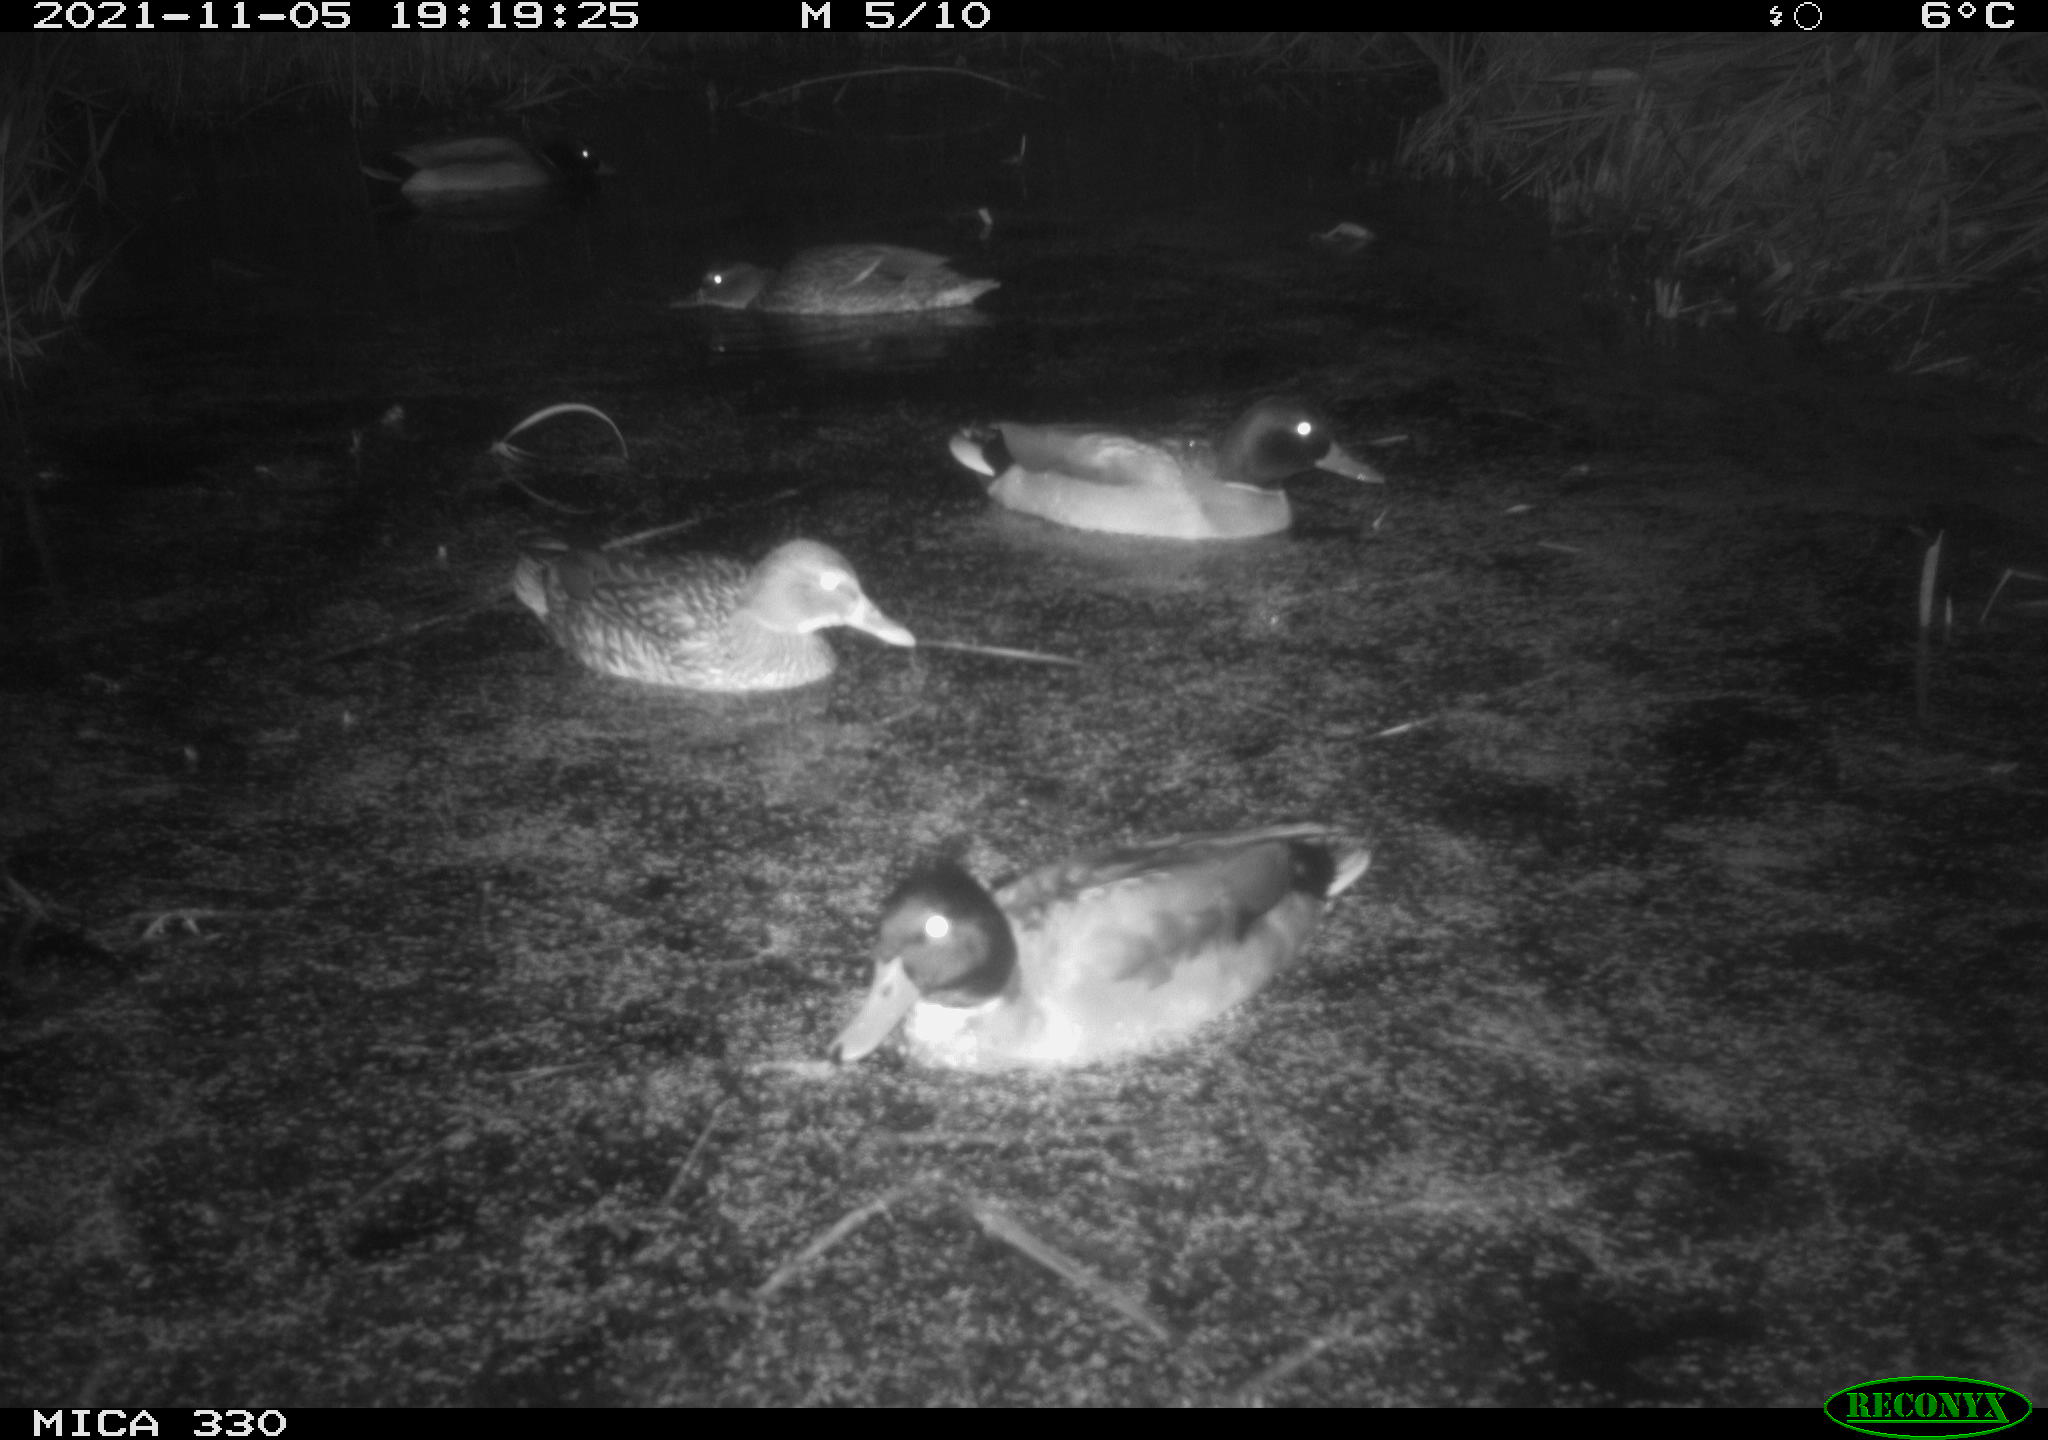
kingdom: Animalia
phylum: Chordata
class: Aves
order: Anseriformes
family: Anatidae
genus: Anas
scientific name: Anas platyrhynchos
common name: Mallard
